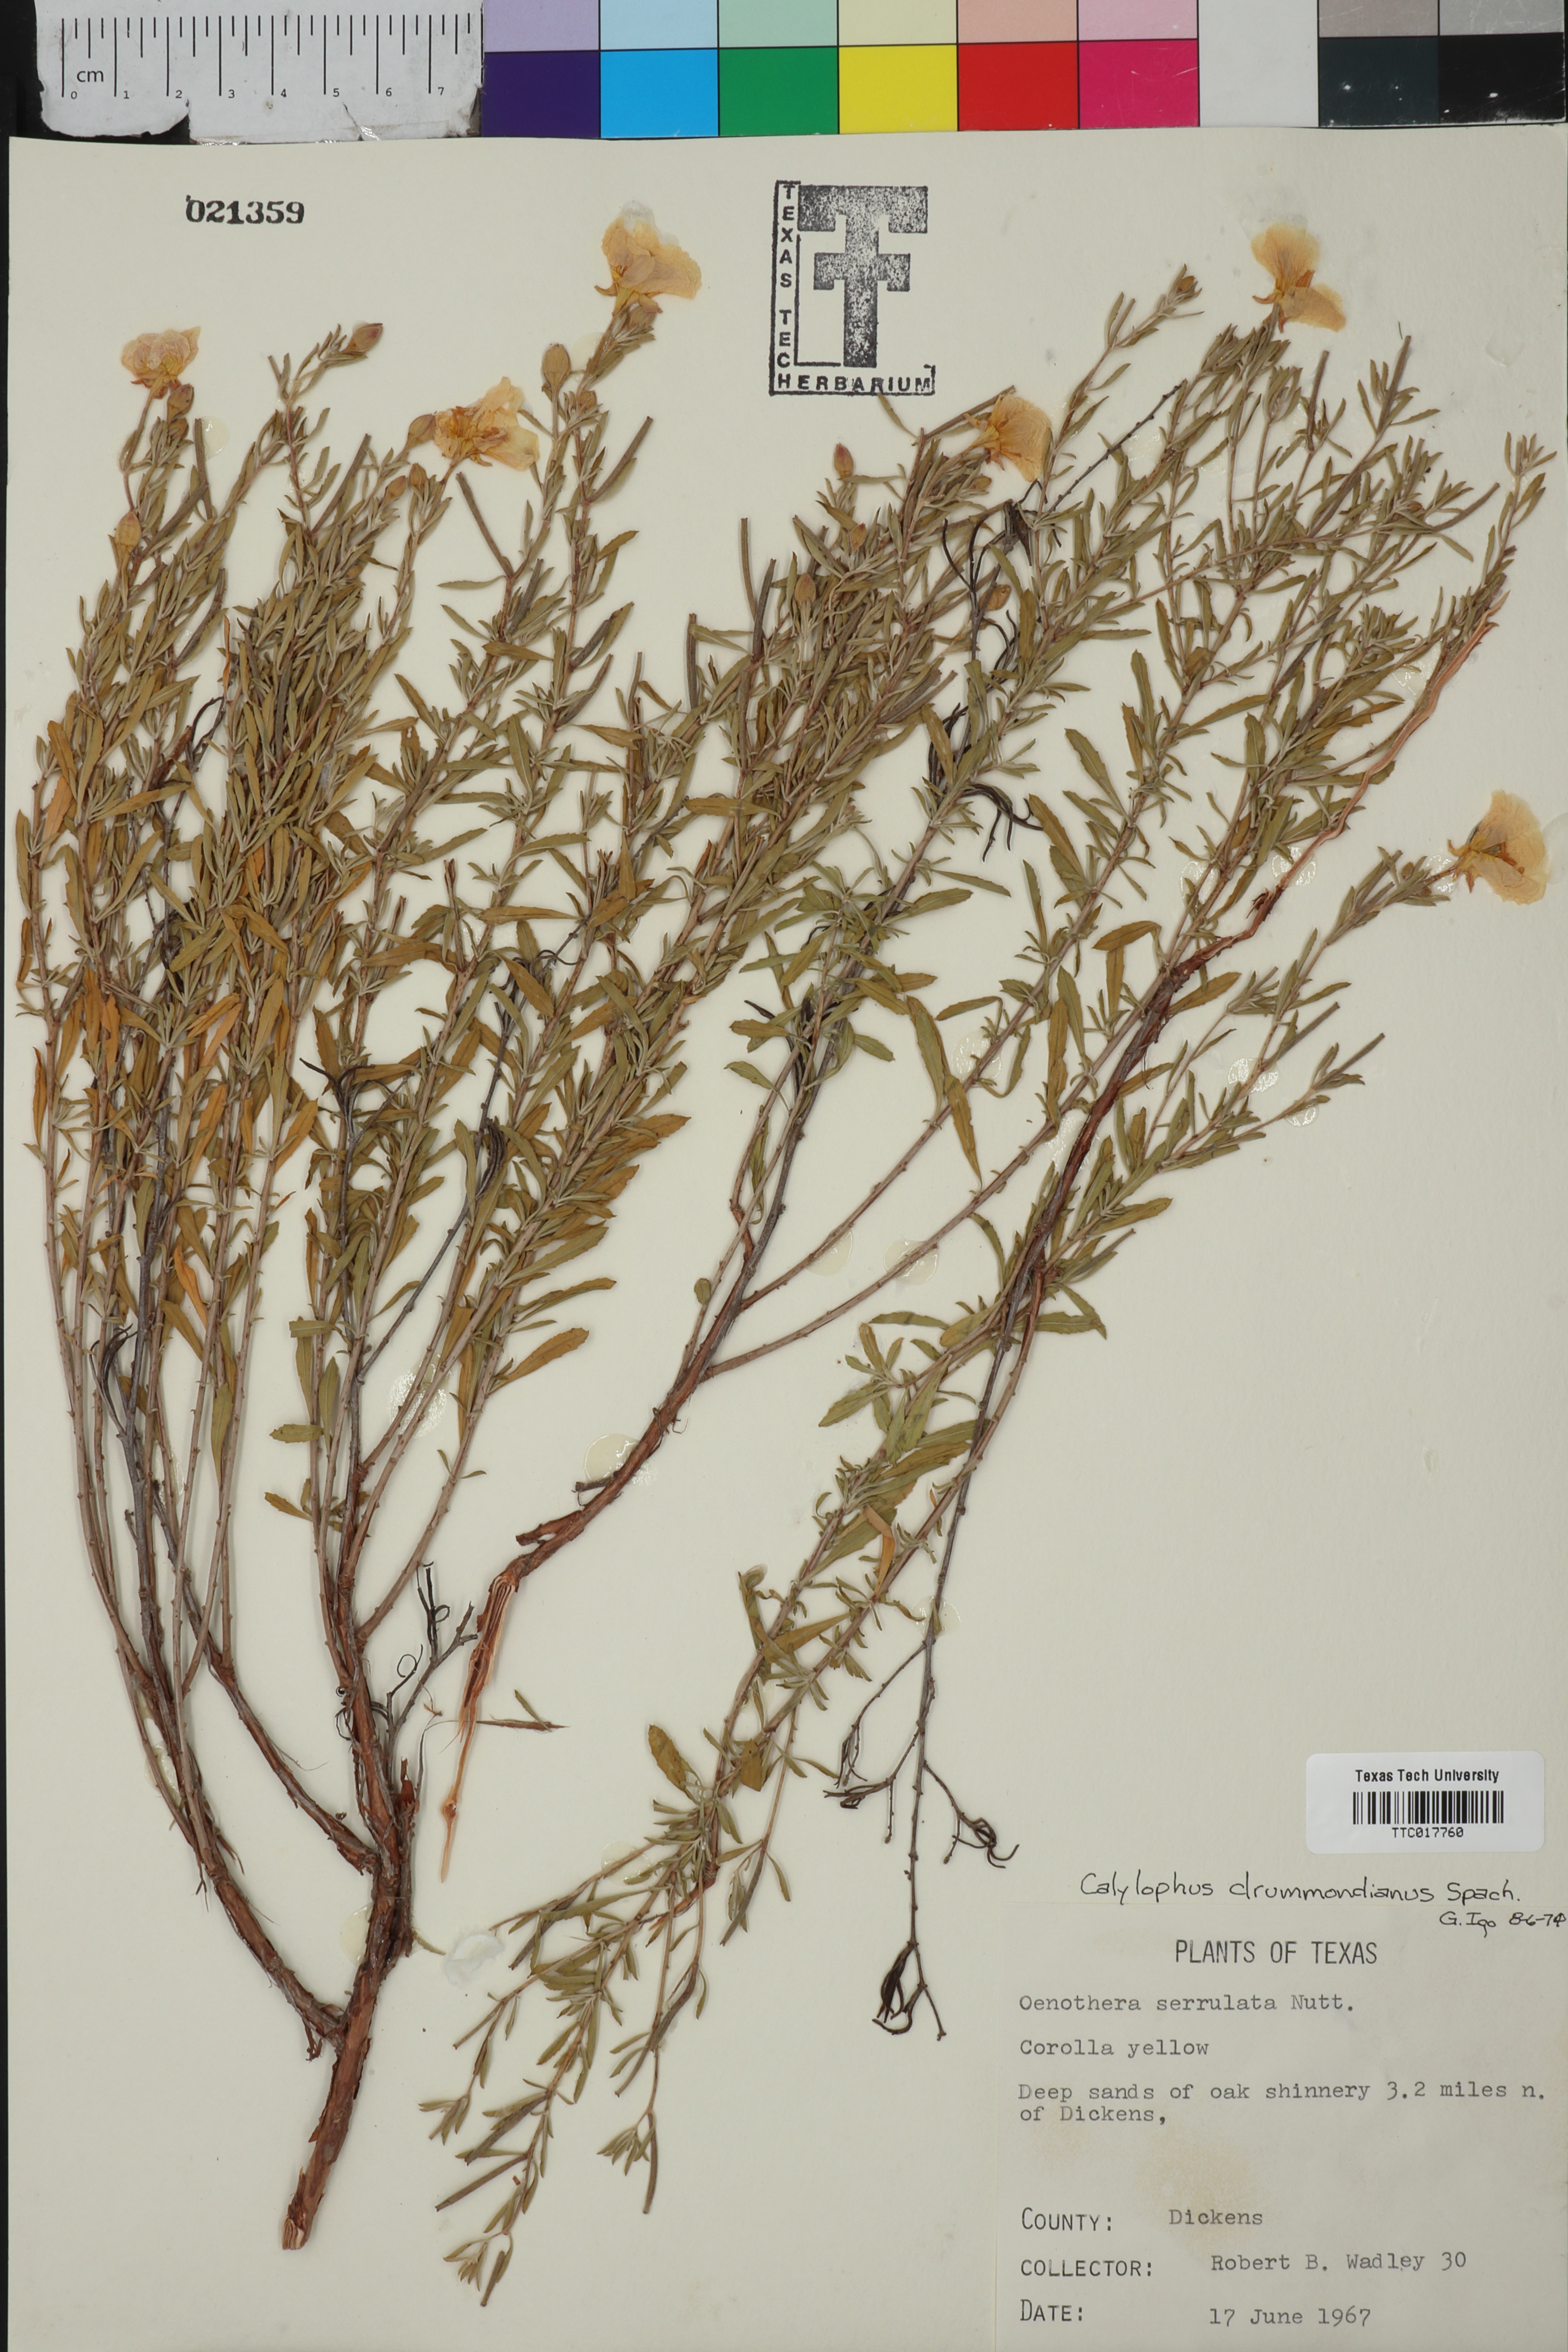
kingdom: Plantae
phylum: Tracheophyta
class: Magnoliopsida
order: Myrtales
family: Onagraceae
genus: Oenothera
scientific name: Oenothera hartwegii
